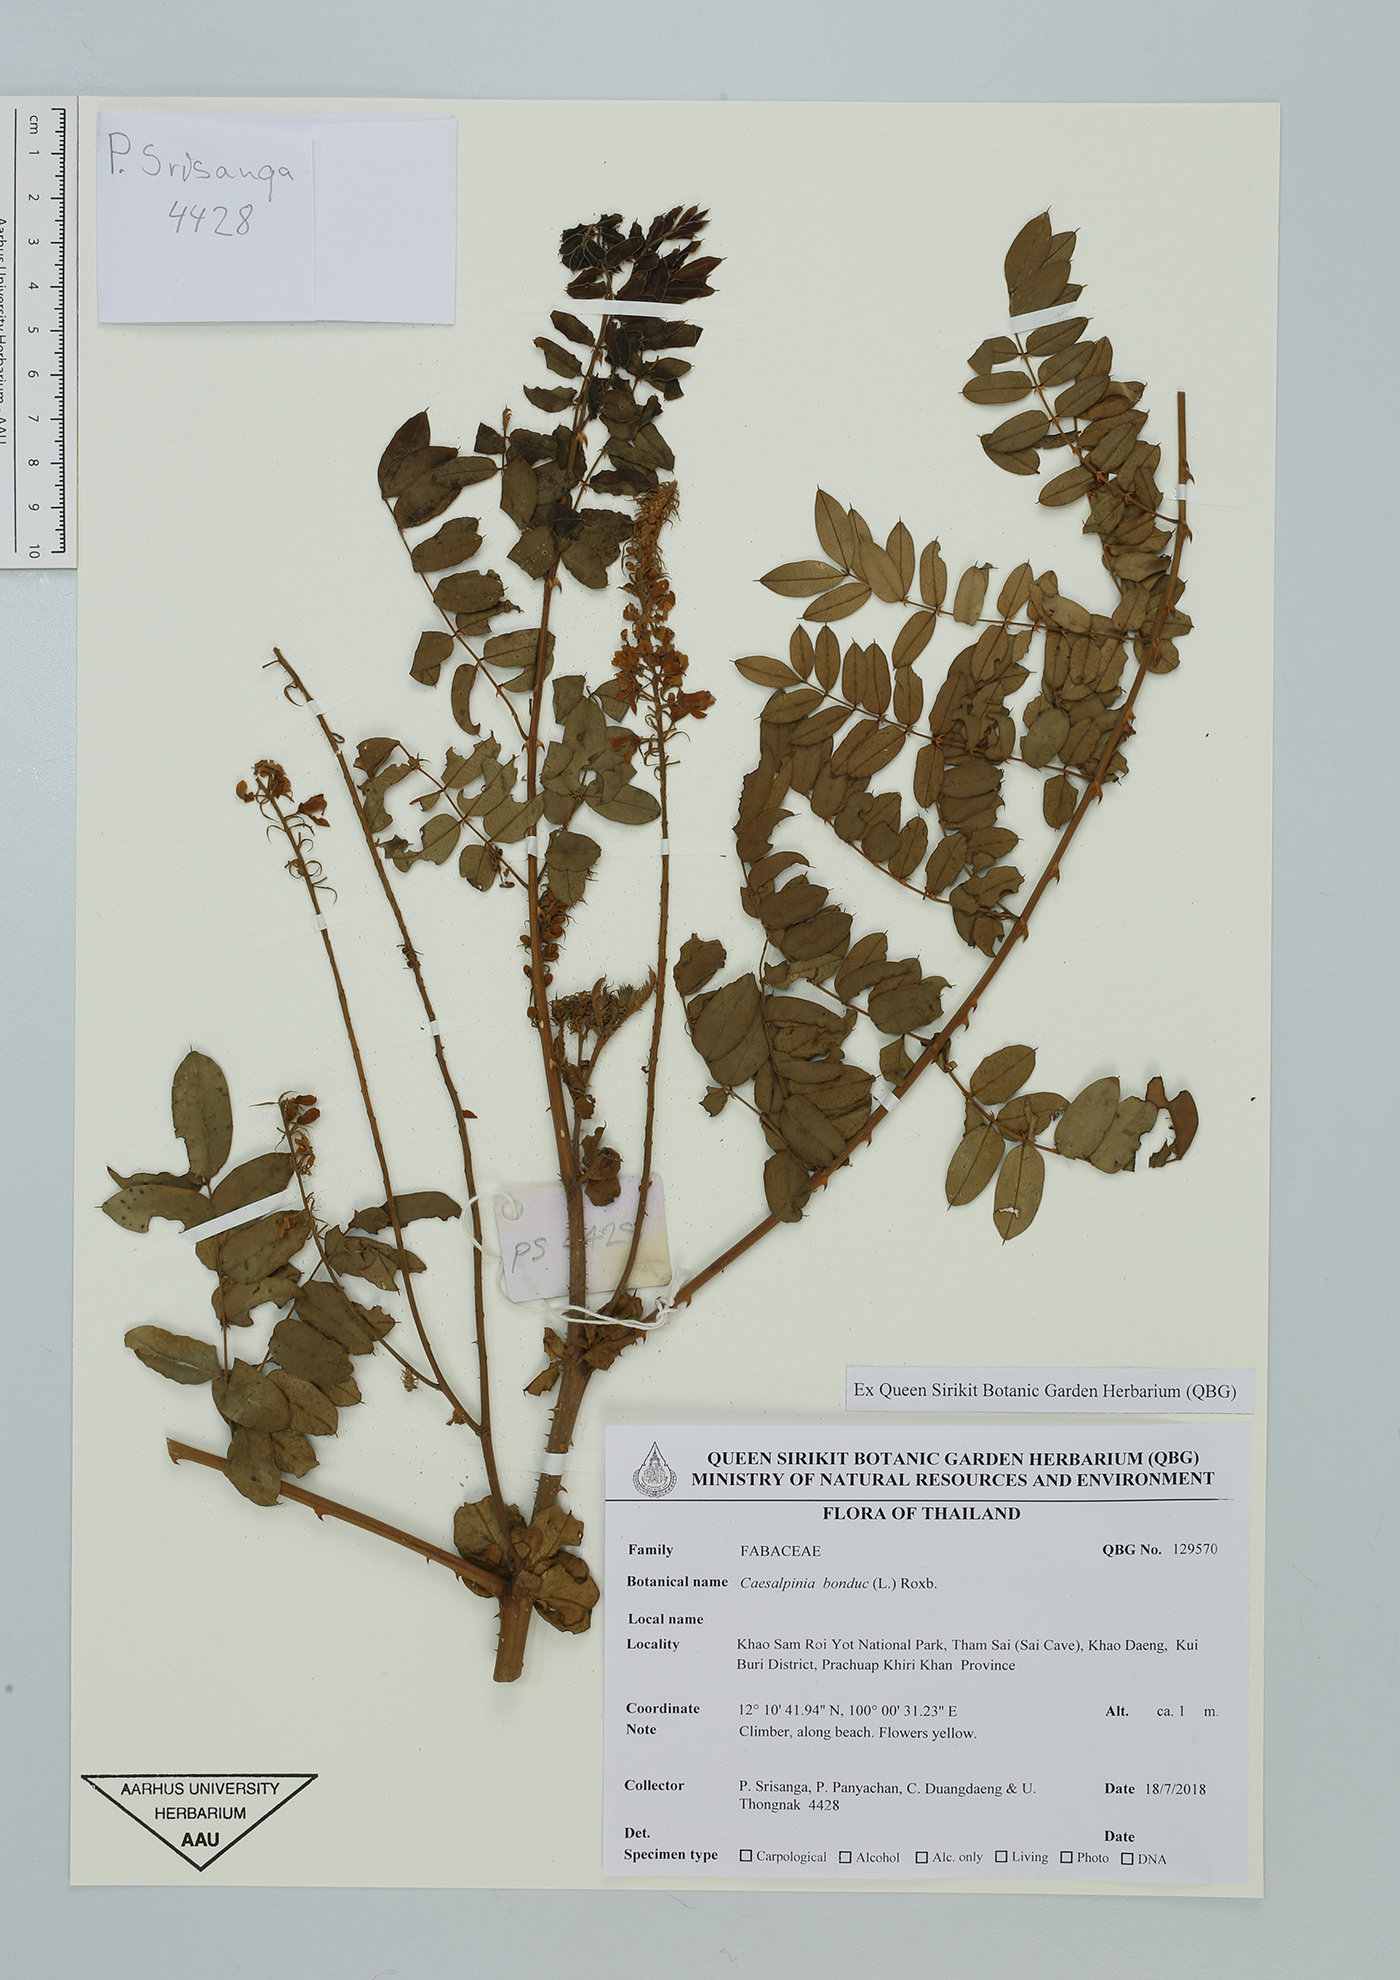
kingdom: Plantae
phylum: Tracheophyta
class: Magnoliopsida
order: Fabales
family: Fabaceae
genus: Guilandina
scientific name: Guilandina bonduc
